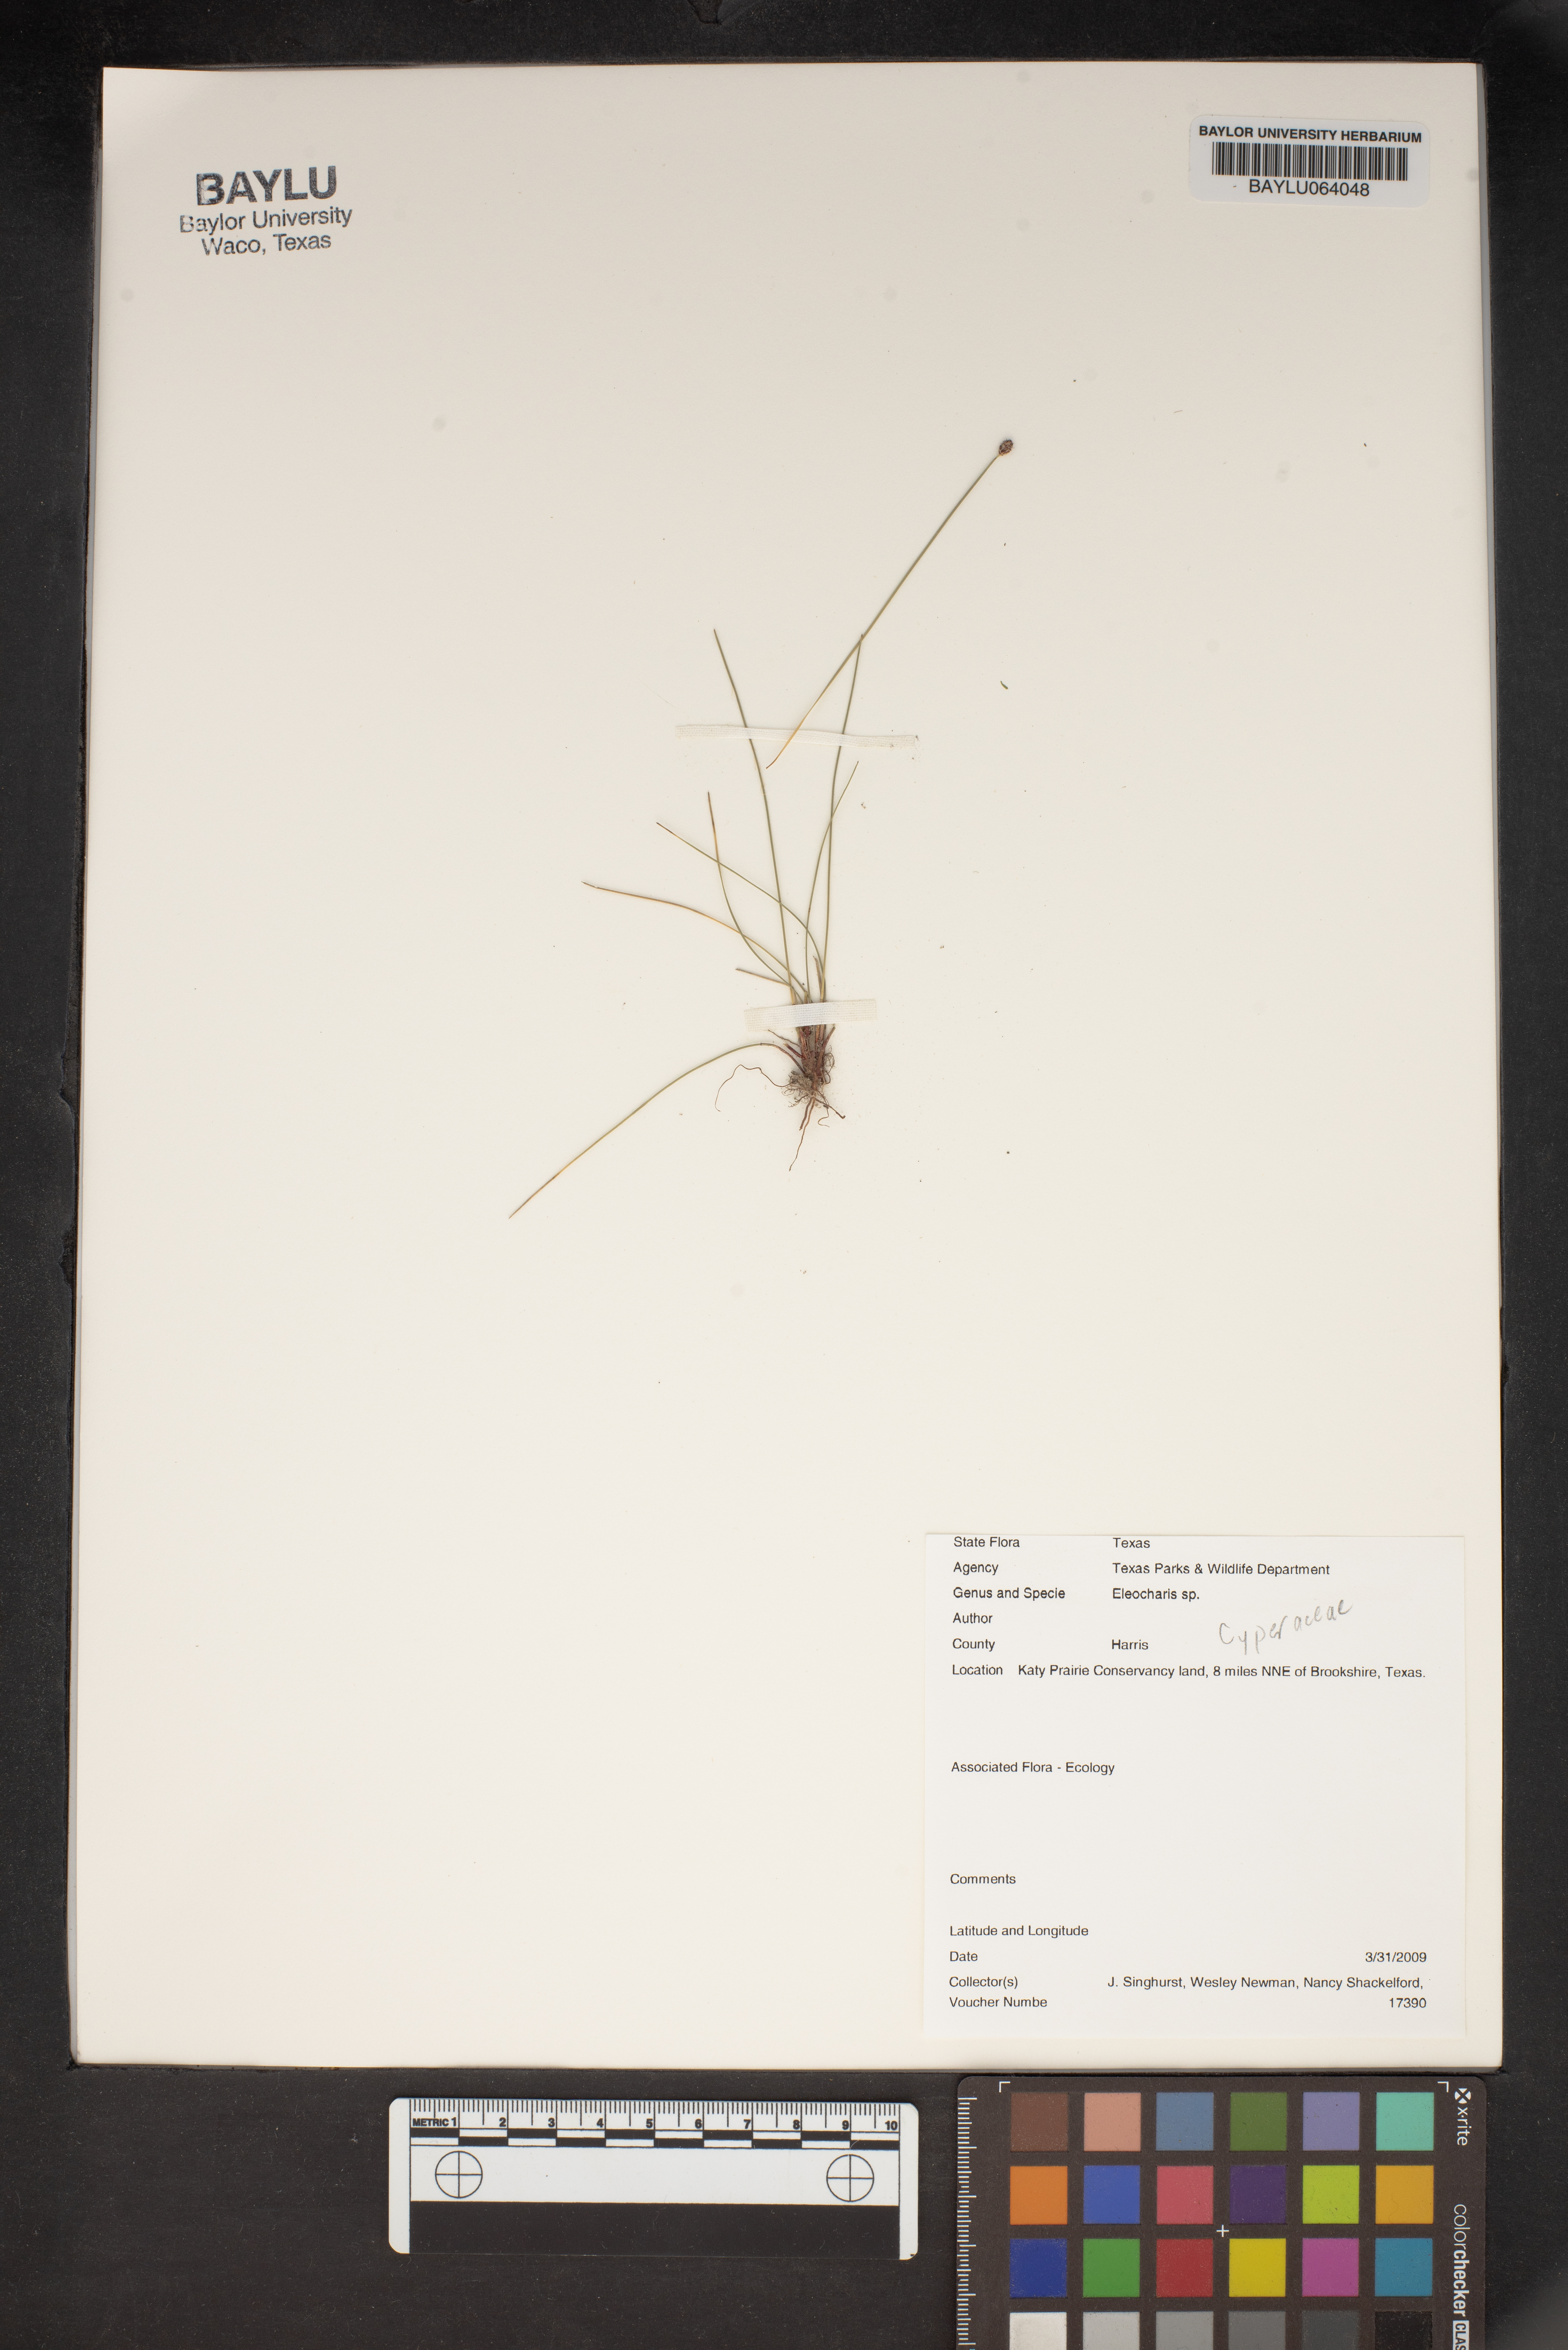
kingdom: Plantae
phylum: Tracheophyta
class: Liliopsida
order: Poales
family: Cyperaceae
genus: Eleocharis
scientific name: Eleocharis
